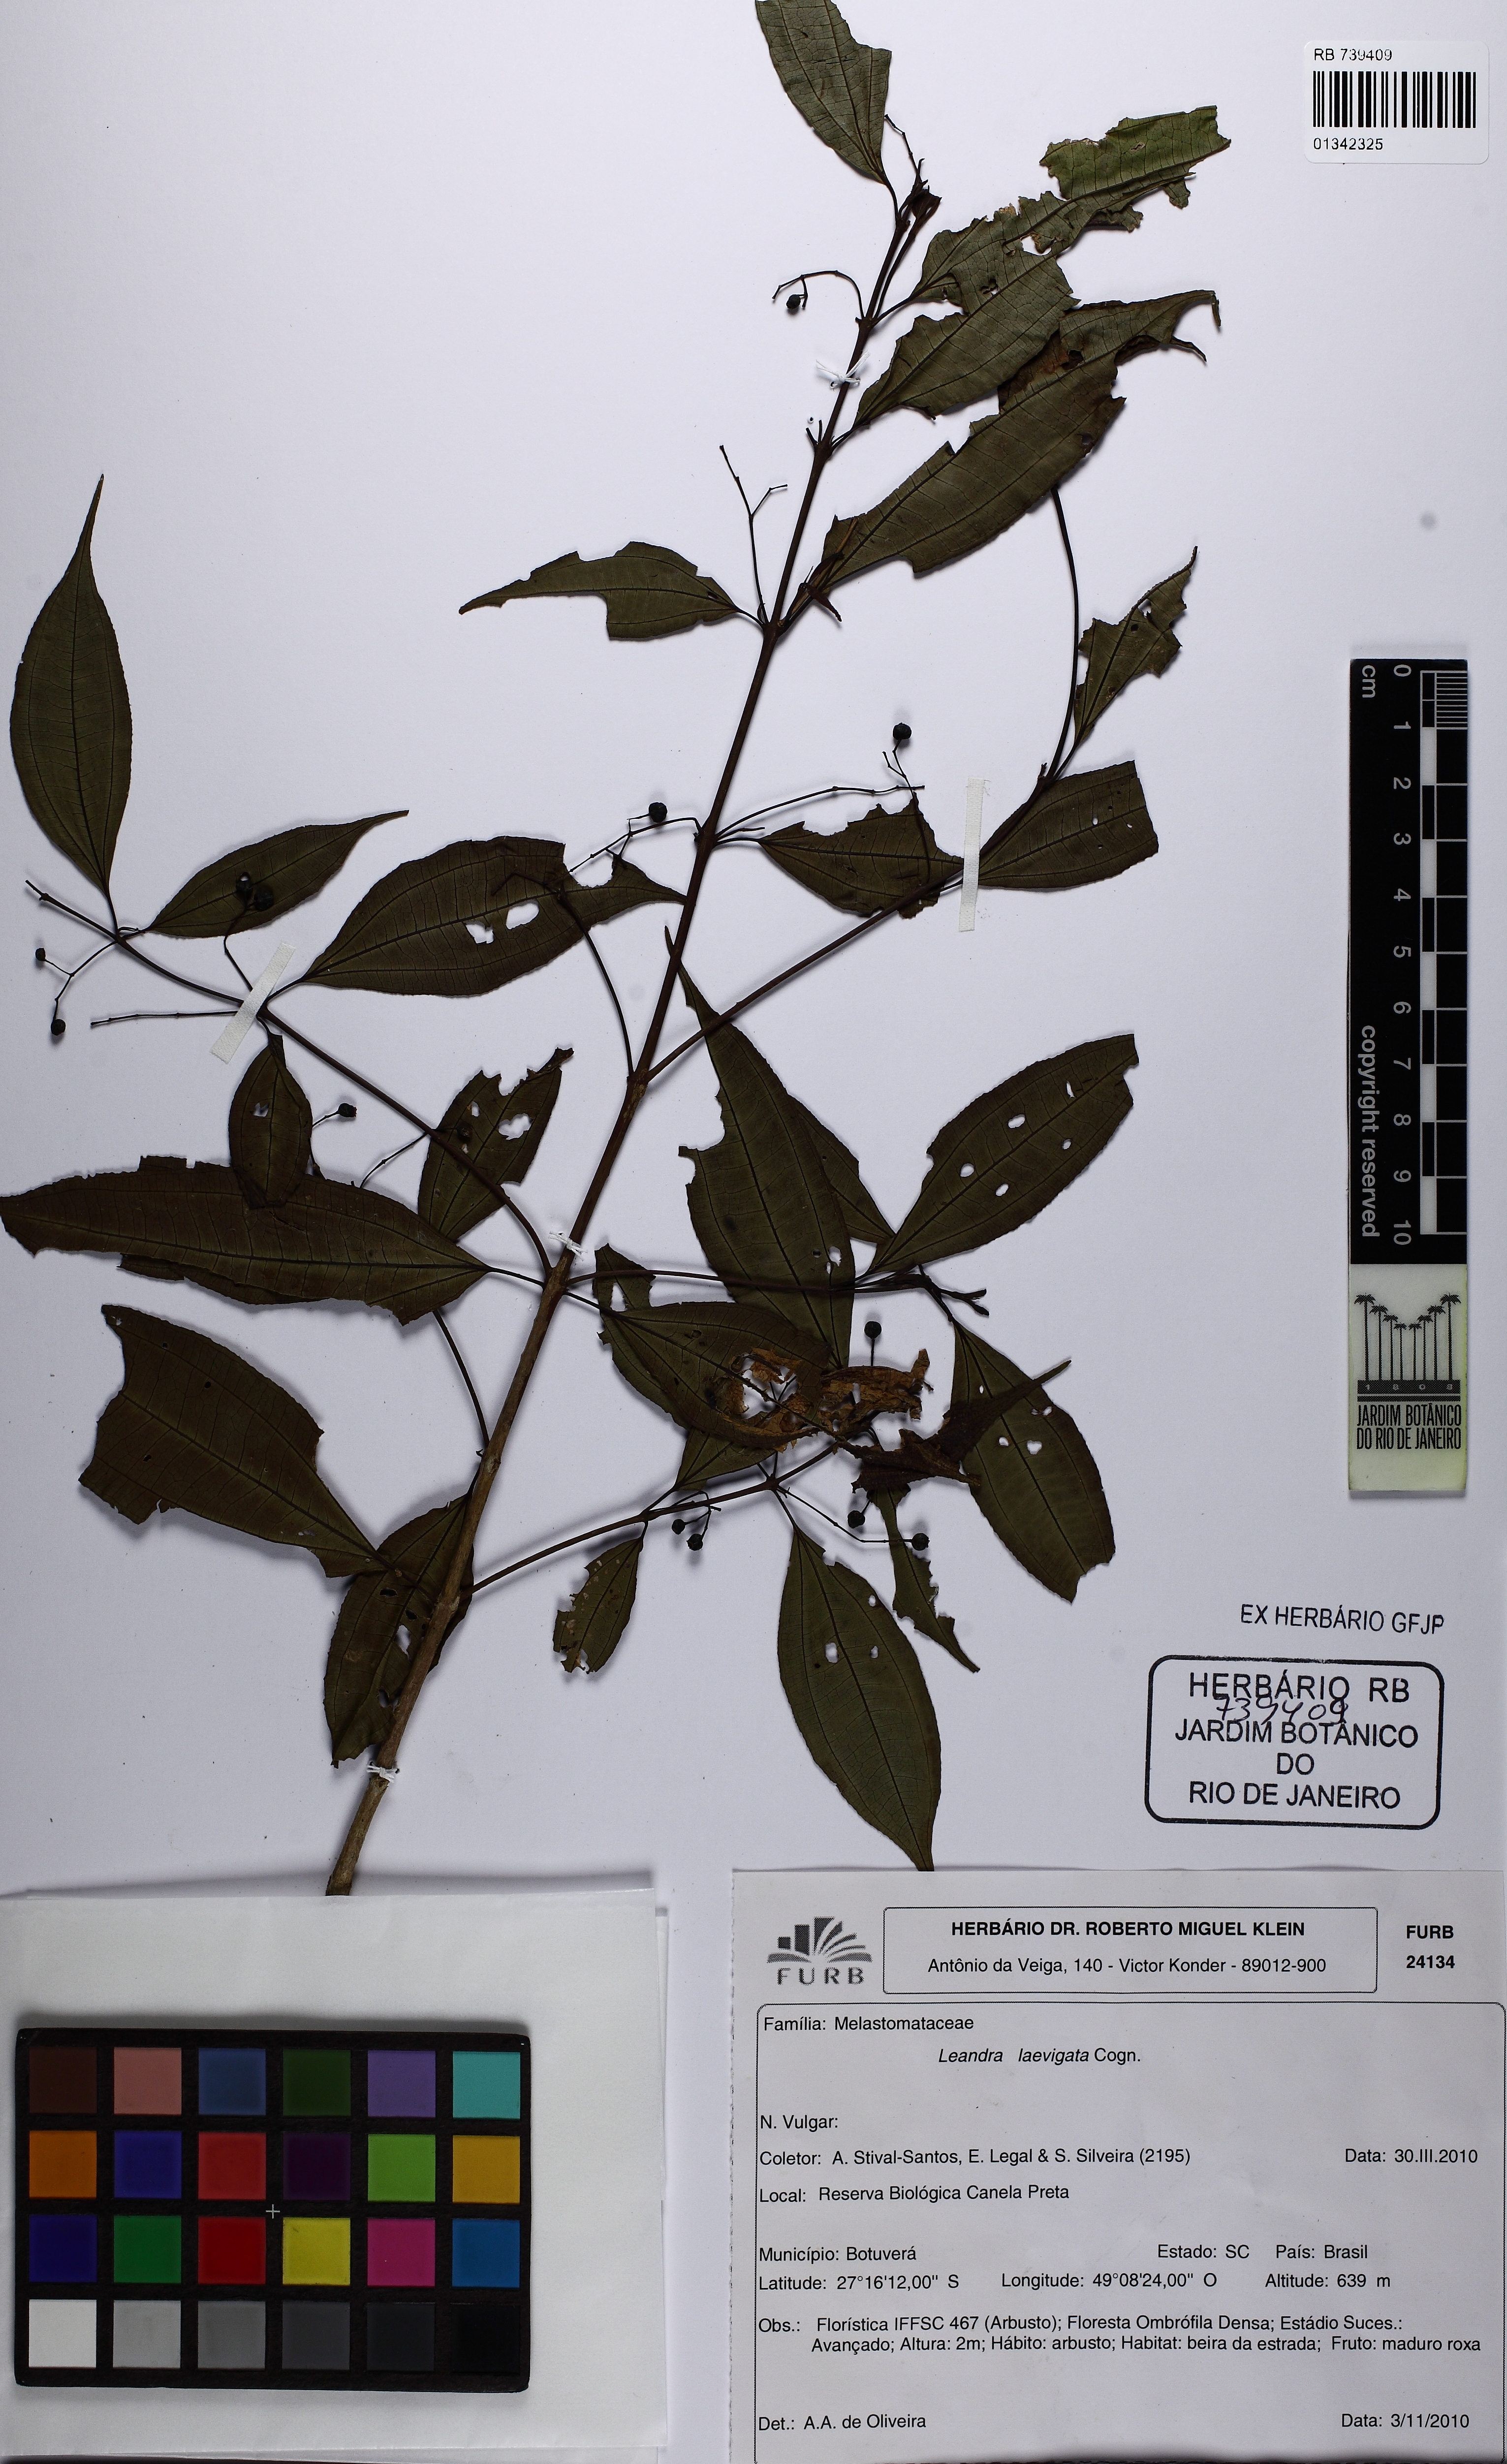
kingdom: Plantae
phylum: Tracheophyta
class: Magnoliopsida
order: Myrtales
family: Melastomataceae
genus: Miconia
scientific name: Miconia ciliolata
